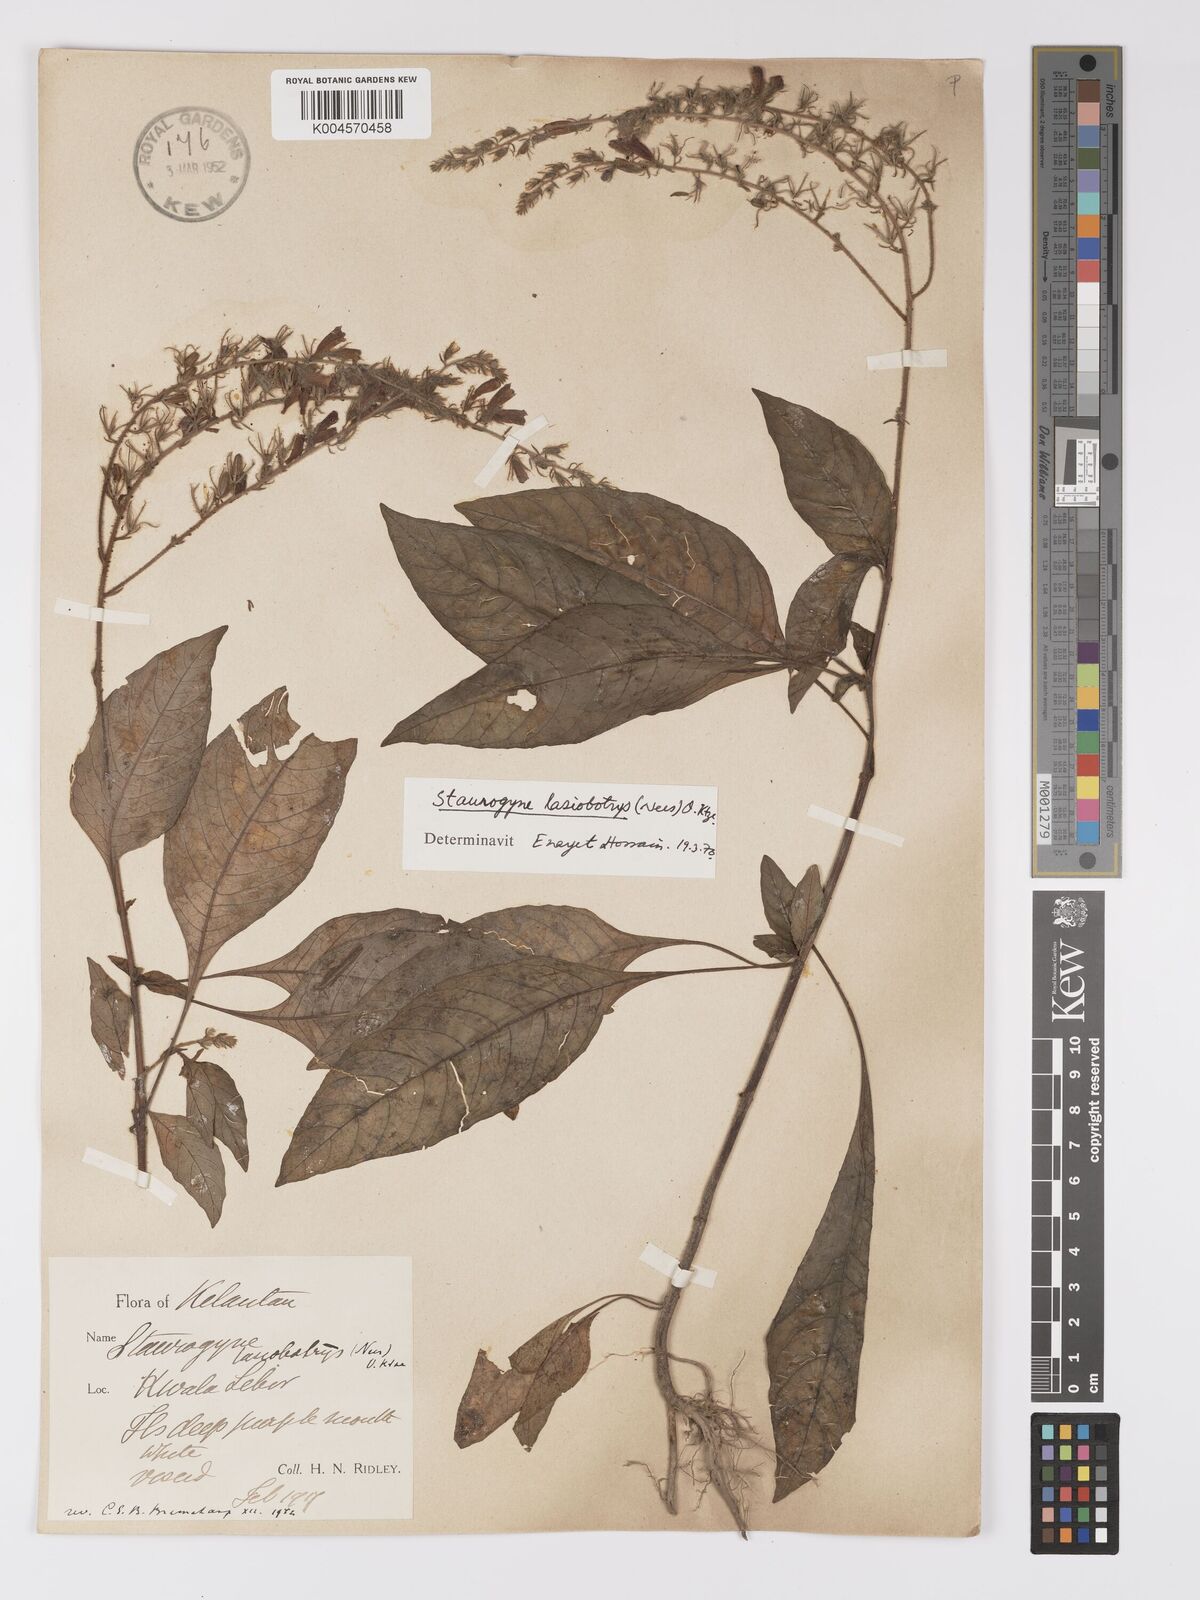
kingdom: Plantae
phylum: Tracheophyta
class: Magnoliopsida
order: Lamiales
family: Acanthaceae
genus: Staurogyne
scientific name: Staurogyne lasiobotrys
